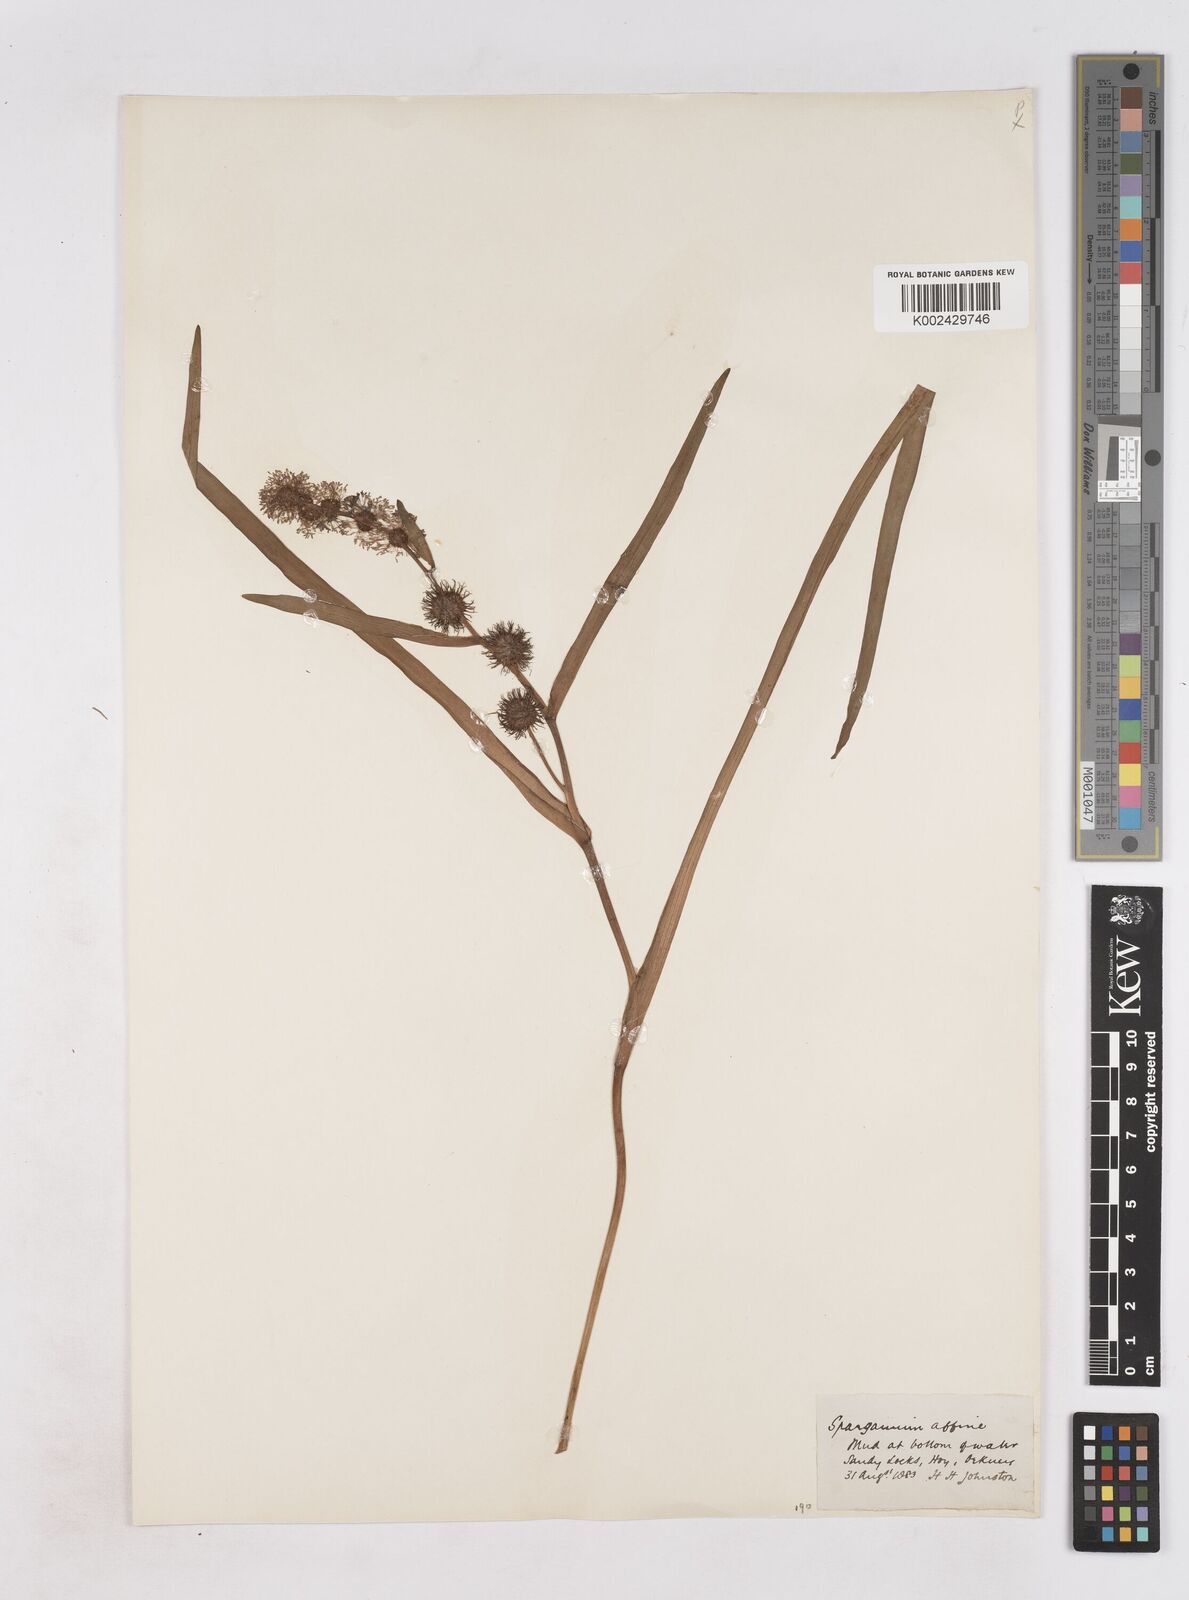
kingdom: Plantae
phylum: Tracheophyta
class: Liliopsida
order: Poales
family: Typhaceae
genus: Sparganium
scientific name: Sparganium angustifolium
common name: Floating bur-reed
